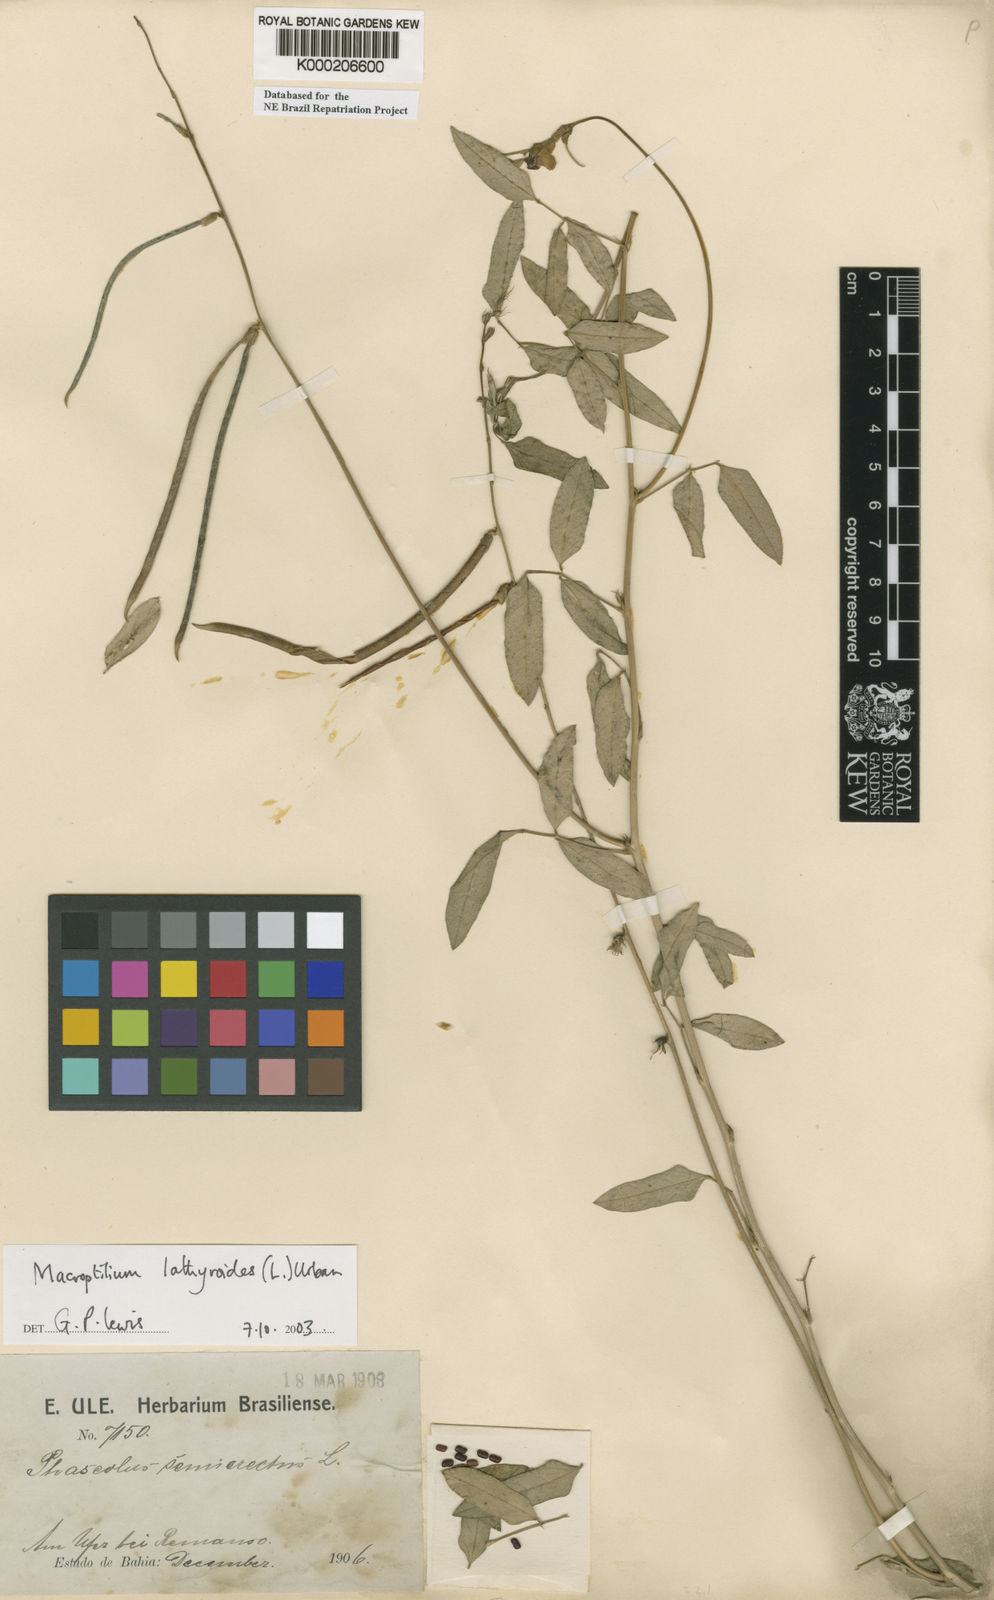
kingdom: Plantae
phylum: Tracheophyta
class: Magnoliopsida
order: Fabales
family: Fabaceae
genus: Macroptilium
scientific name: Macroptilium lathyroides
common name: Wild bushbean
